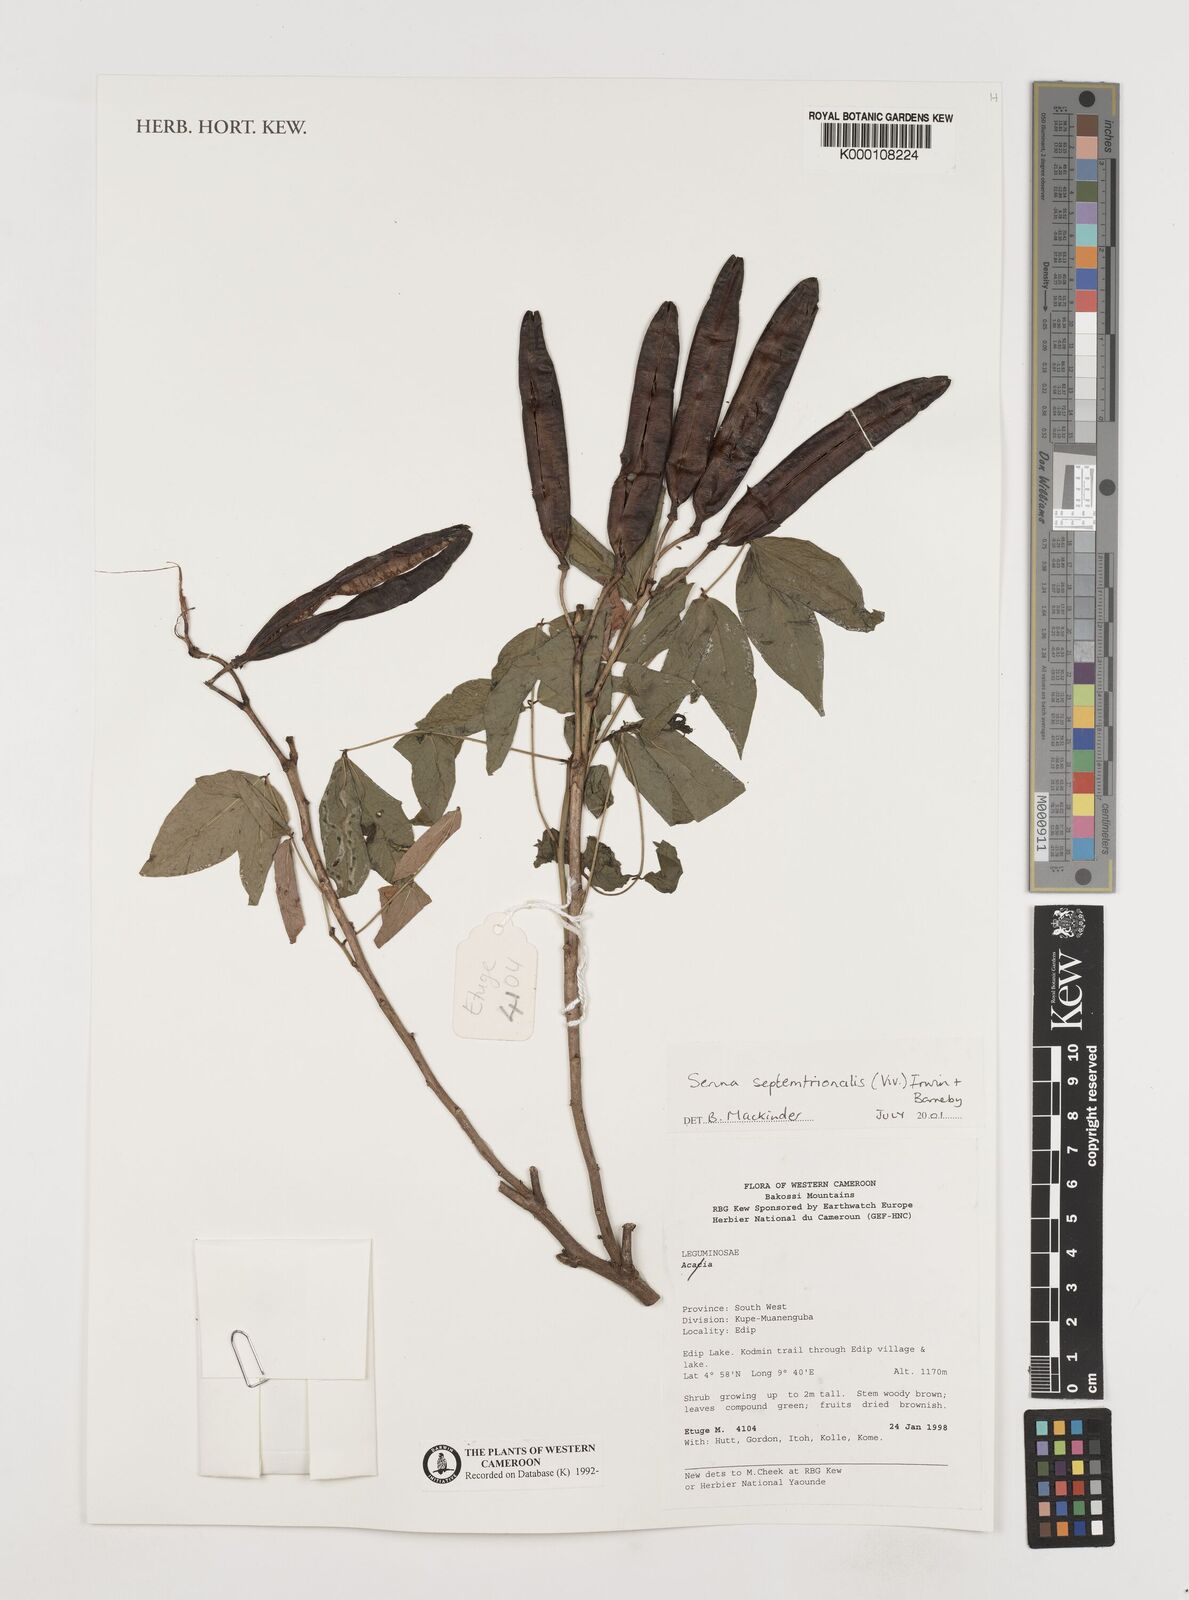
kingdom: Plantae
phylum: Tracheophyta
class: Magnoliopsida
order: Fabales
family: Fabaceae
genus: Senna
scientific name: Senna septemtrionalis
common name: Arsenic bush
